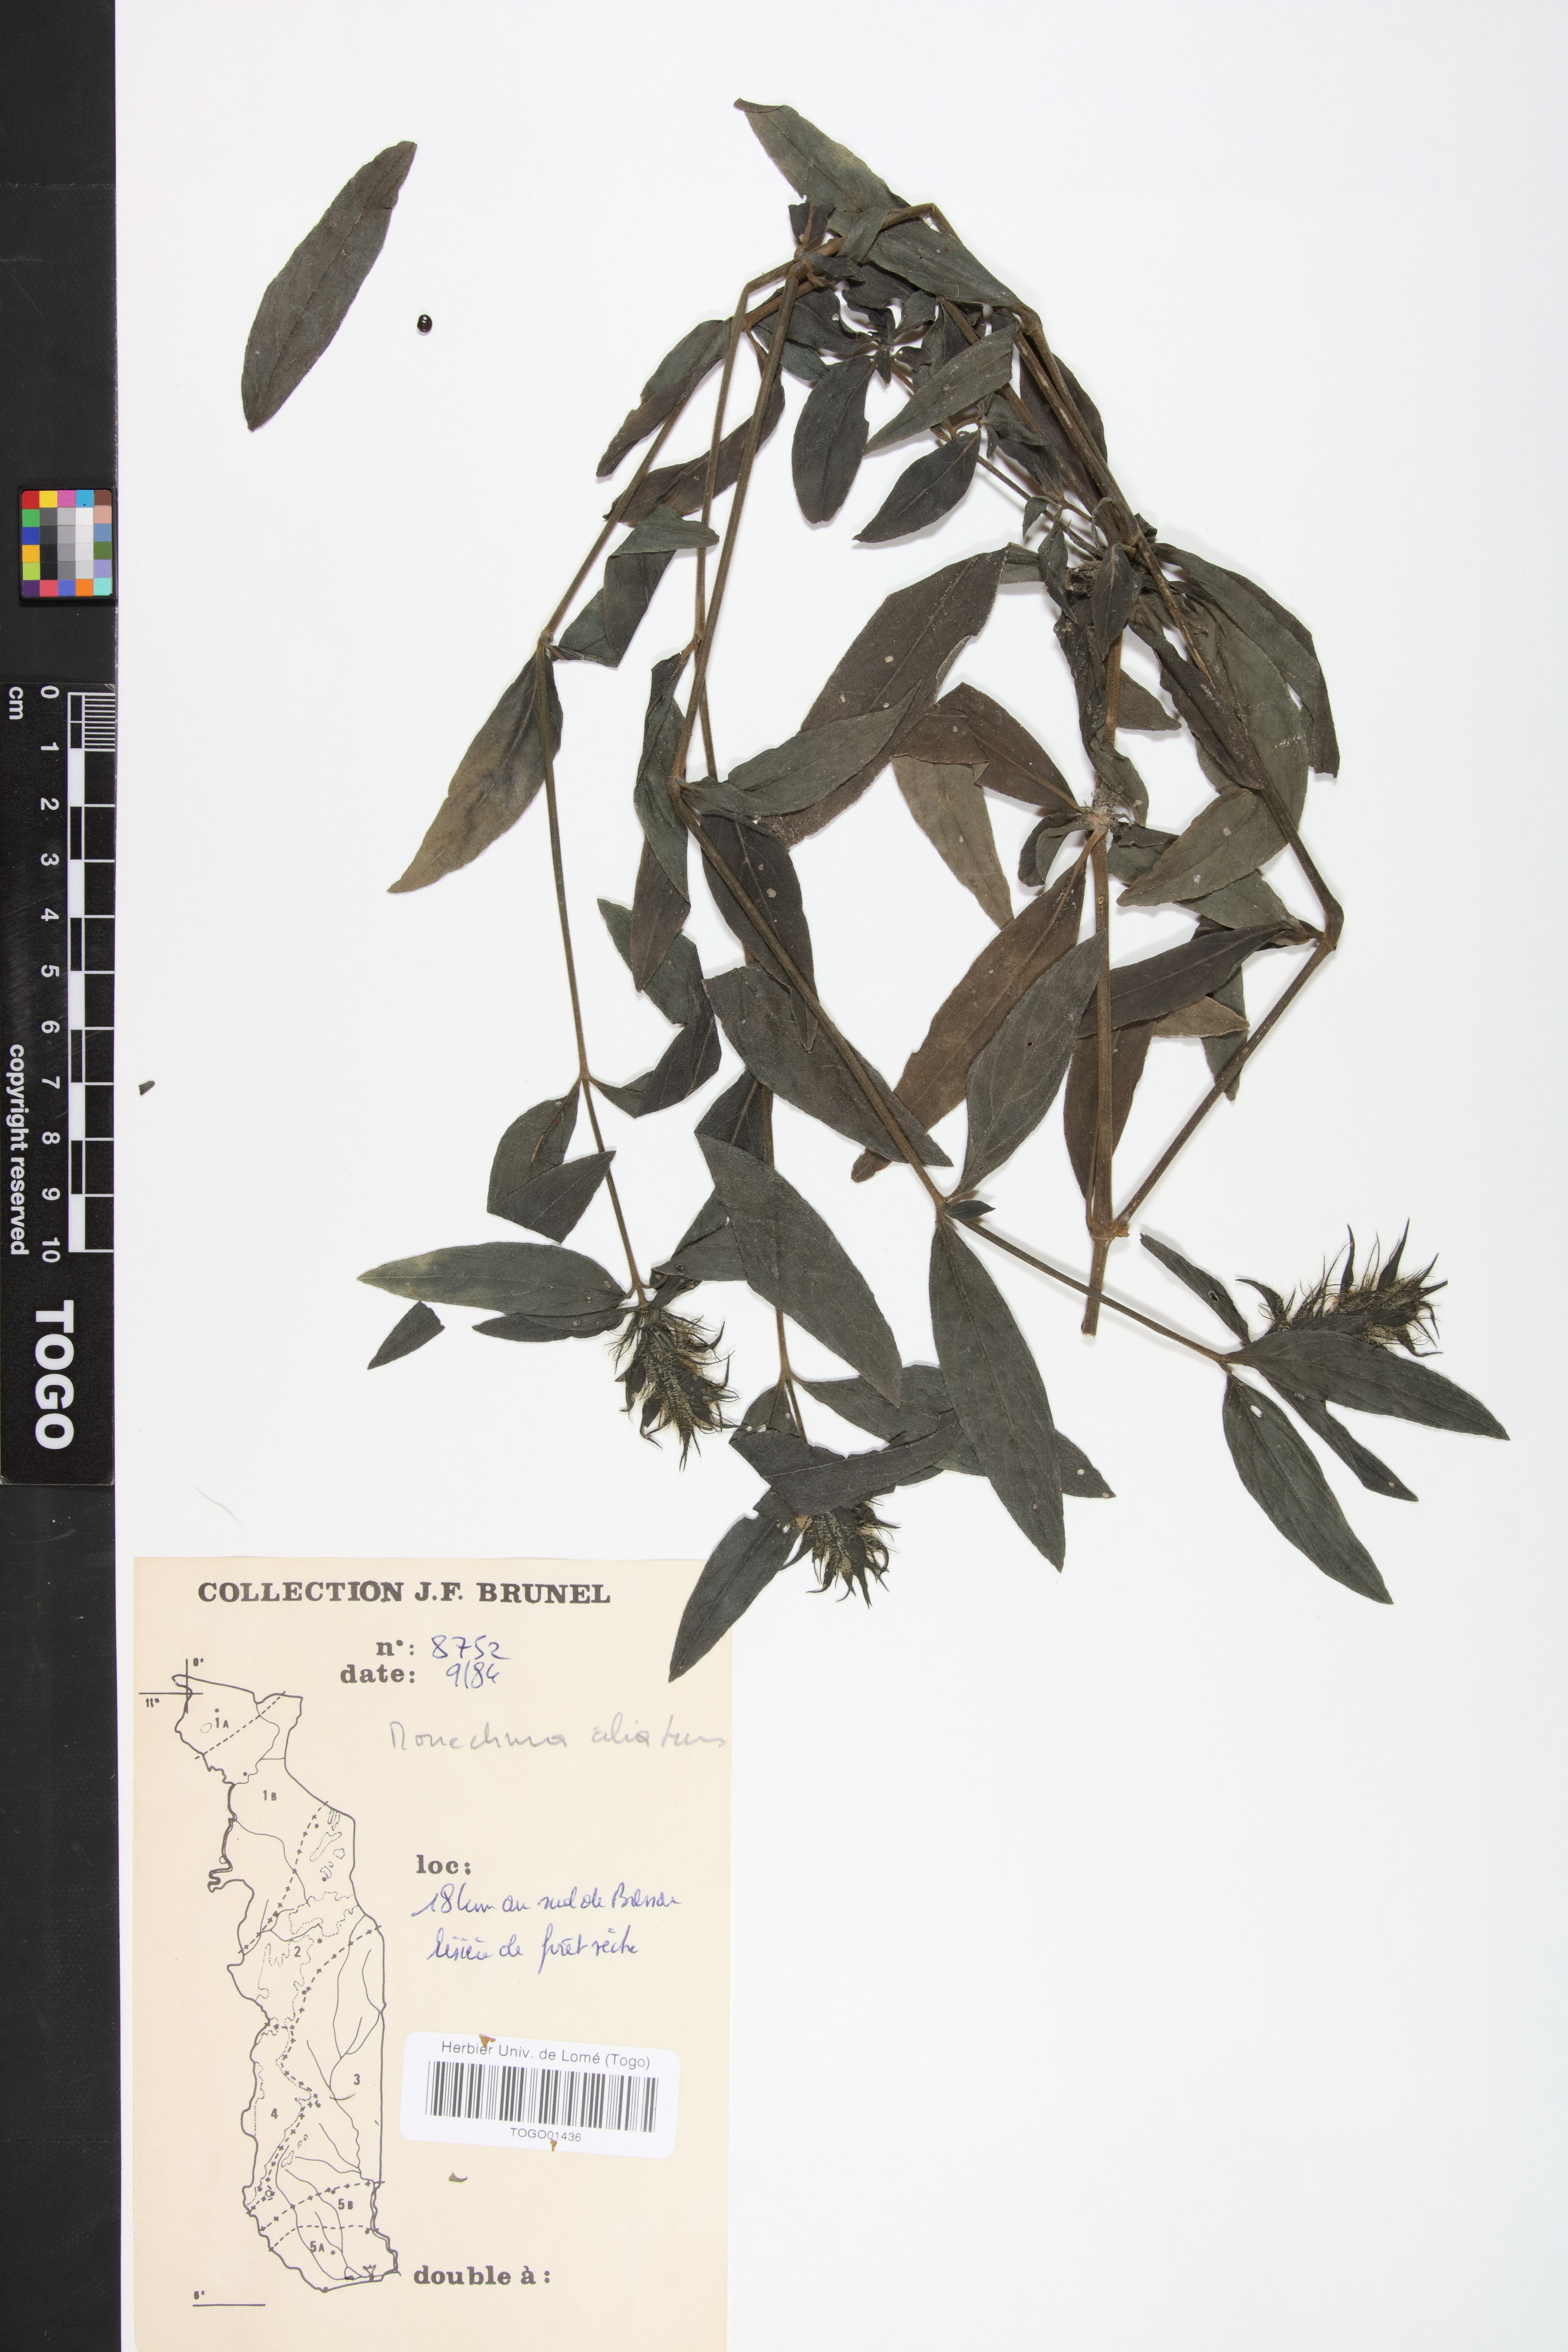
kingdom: Plantae
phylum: Tracheophyta
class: Magnoliopsida
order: Lamiales
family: Acanthaceae
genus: Pogonospermum
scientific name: Pogonospermum ciliare
